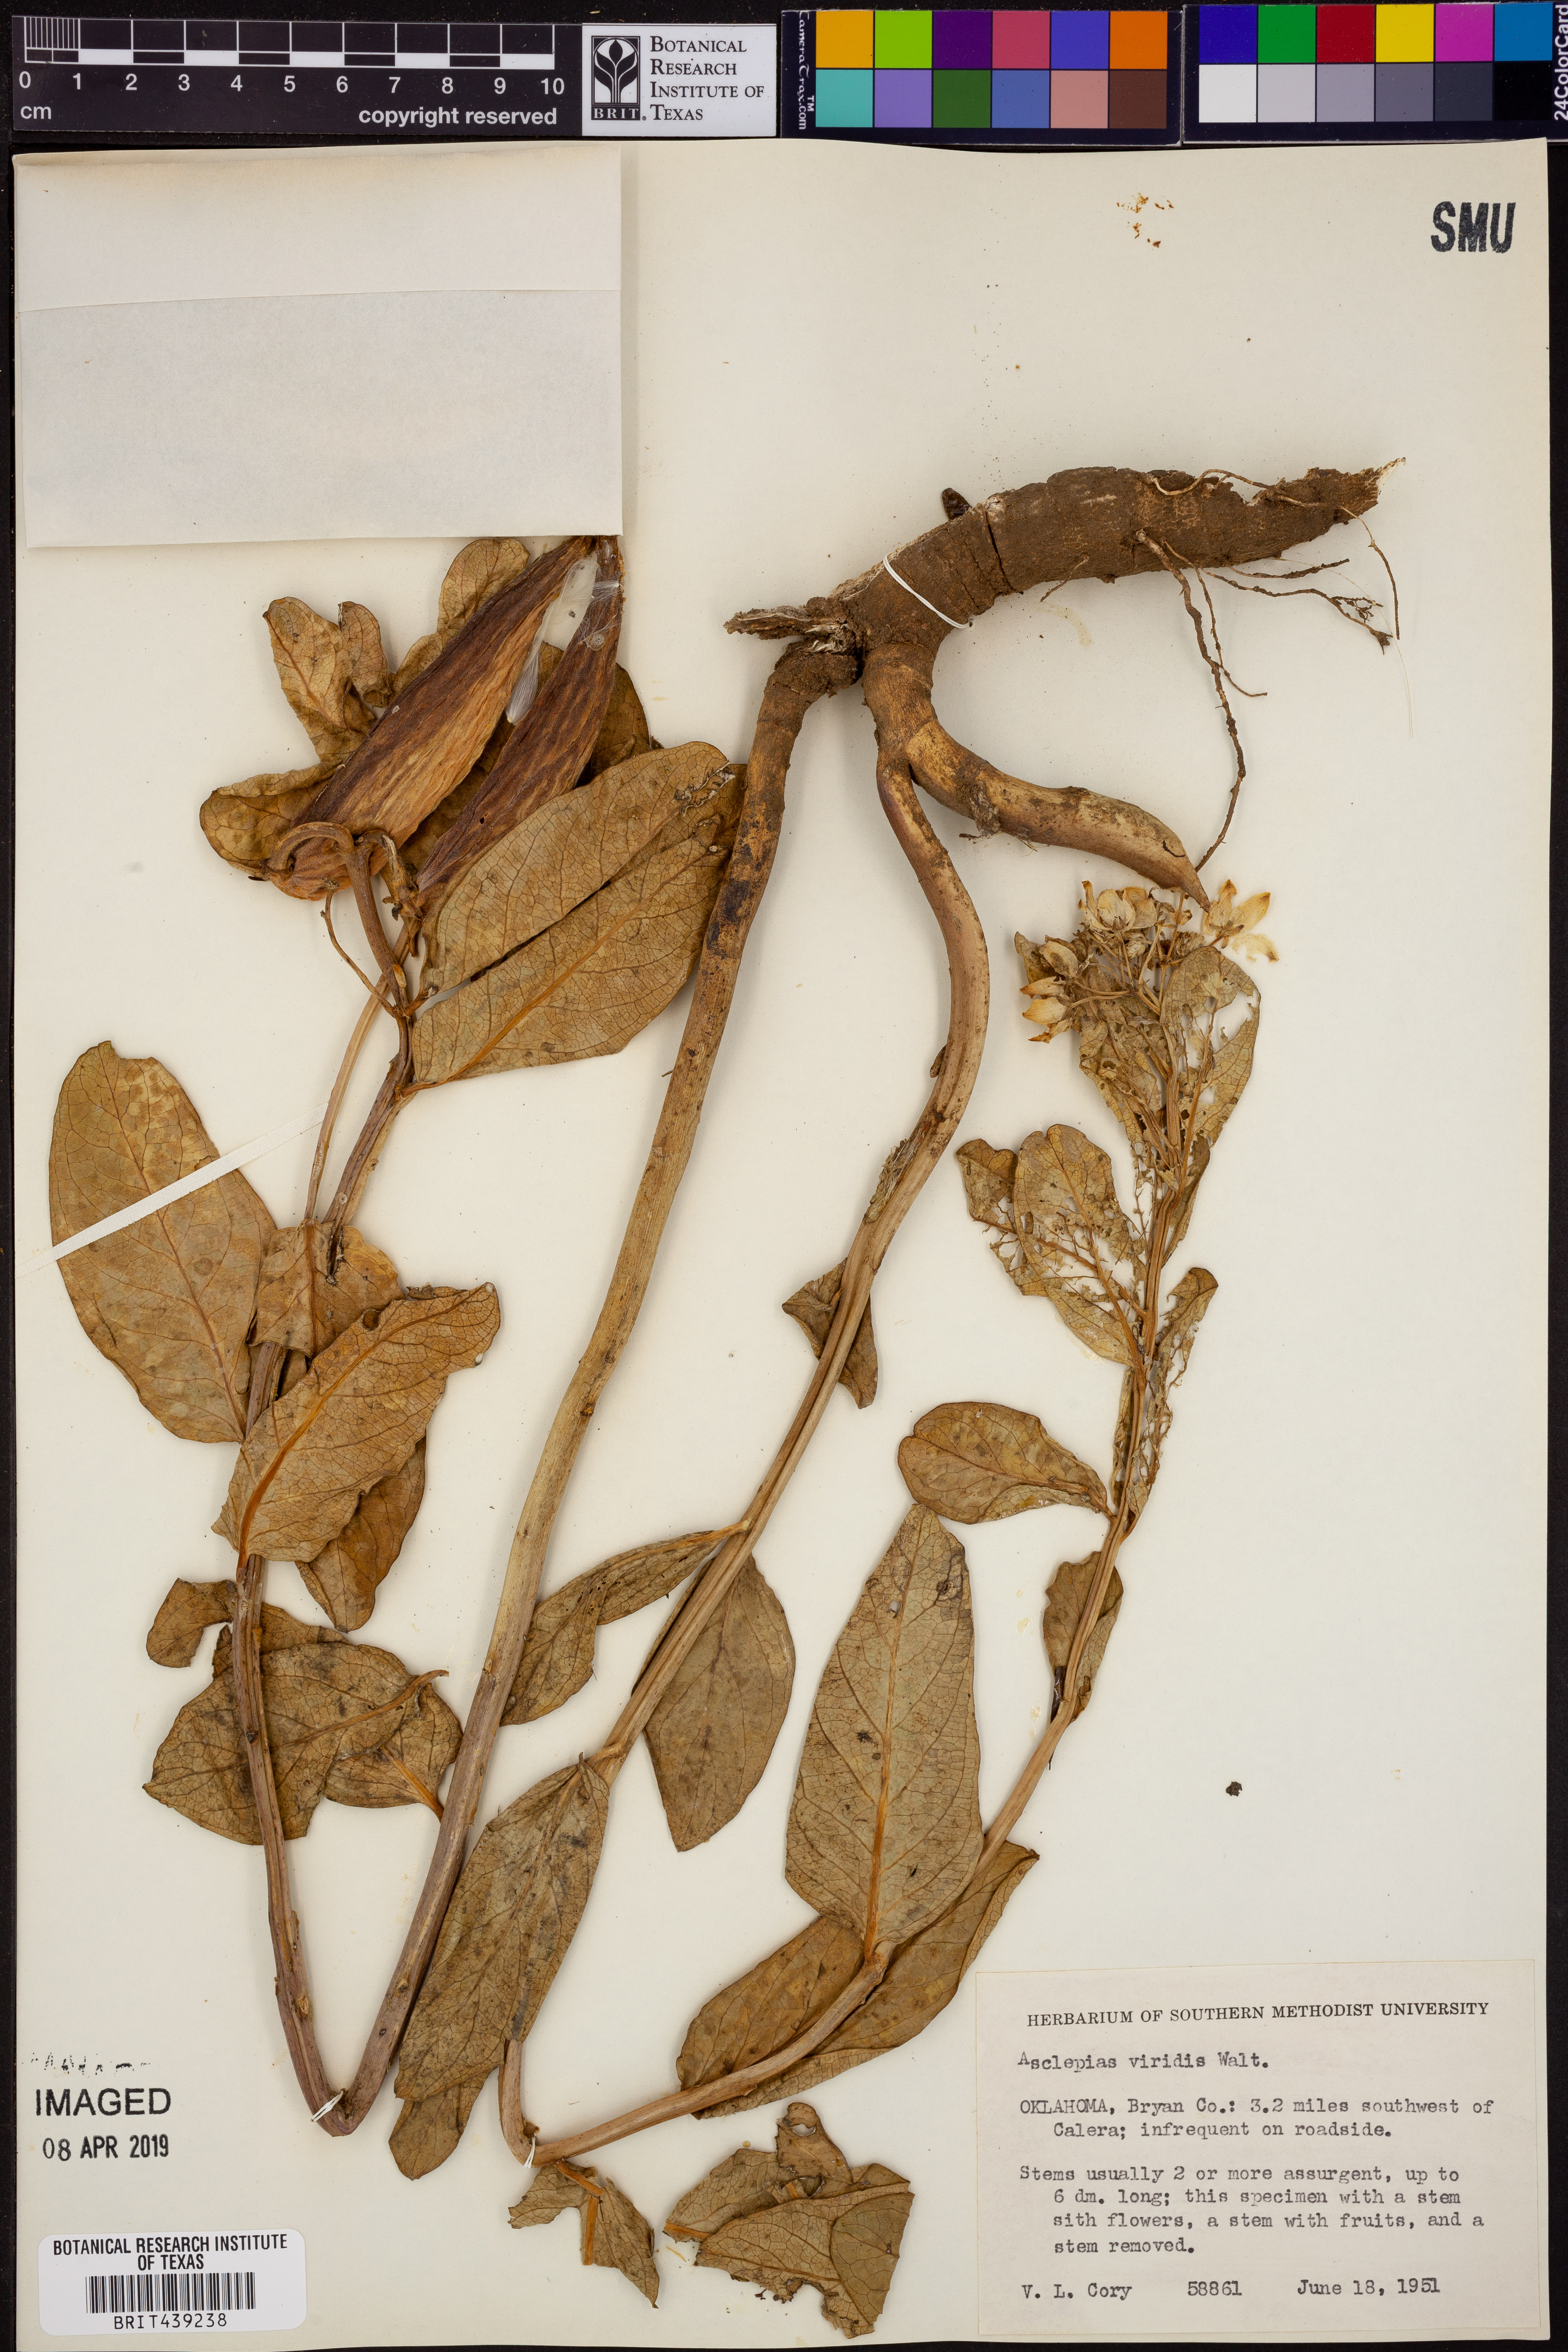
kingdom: Plantae
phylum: Tracheophyta
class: Magnoliopsida
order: Gentianales
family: Apocynaceae
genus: Asclepias
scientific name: Asclepias viridis
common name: Antelope-horns
